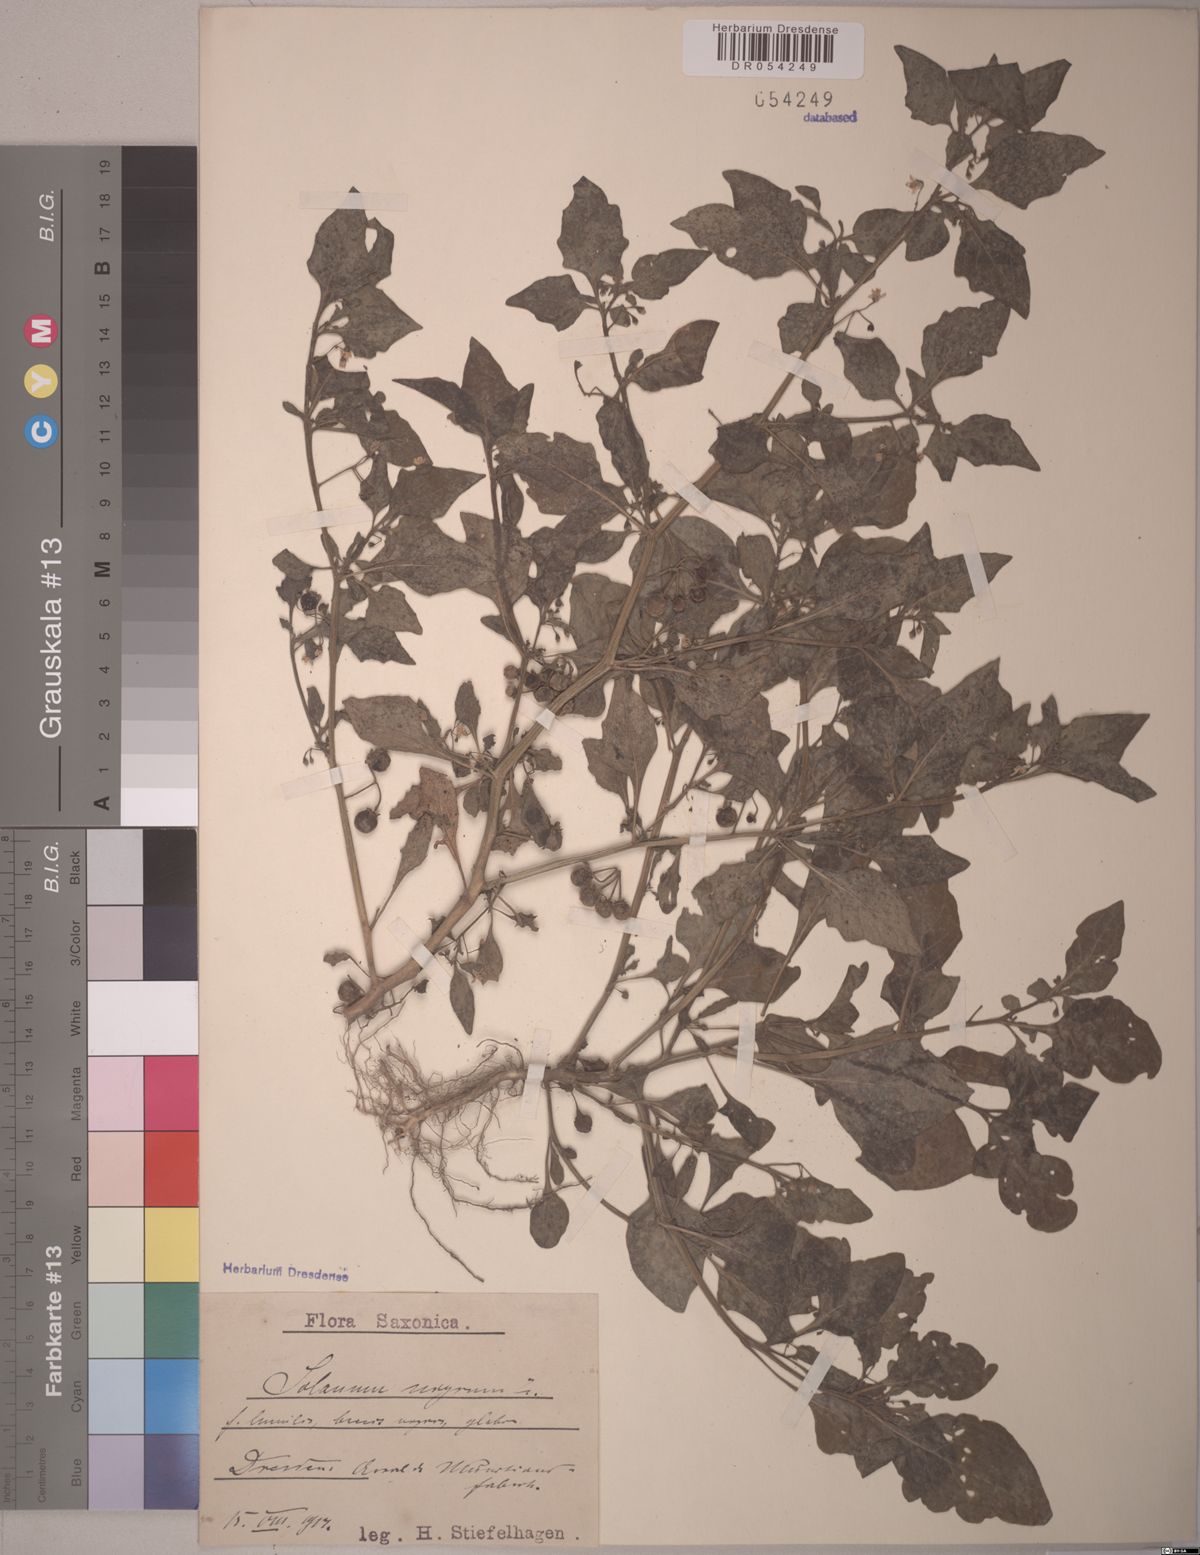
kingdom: Plantae
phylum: Tracheophyta
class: Magnoliopsida
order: Solanales
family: Solanaceae
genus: Solanum
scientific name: Solanum nigrum
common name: Black nightshade
